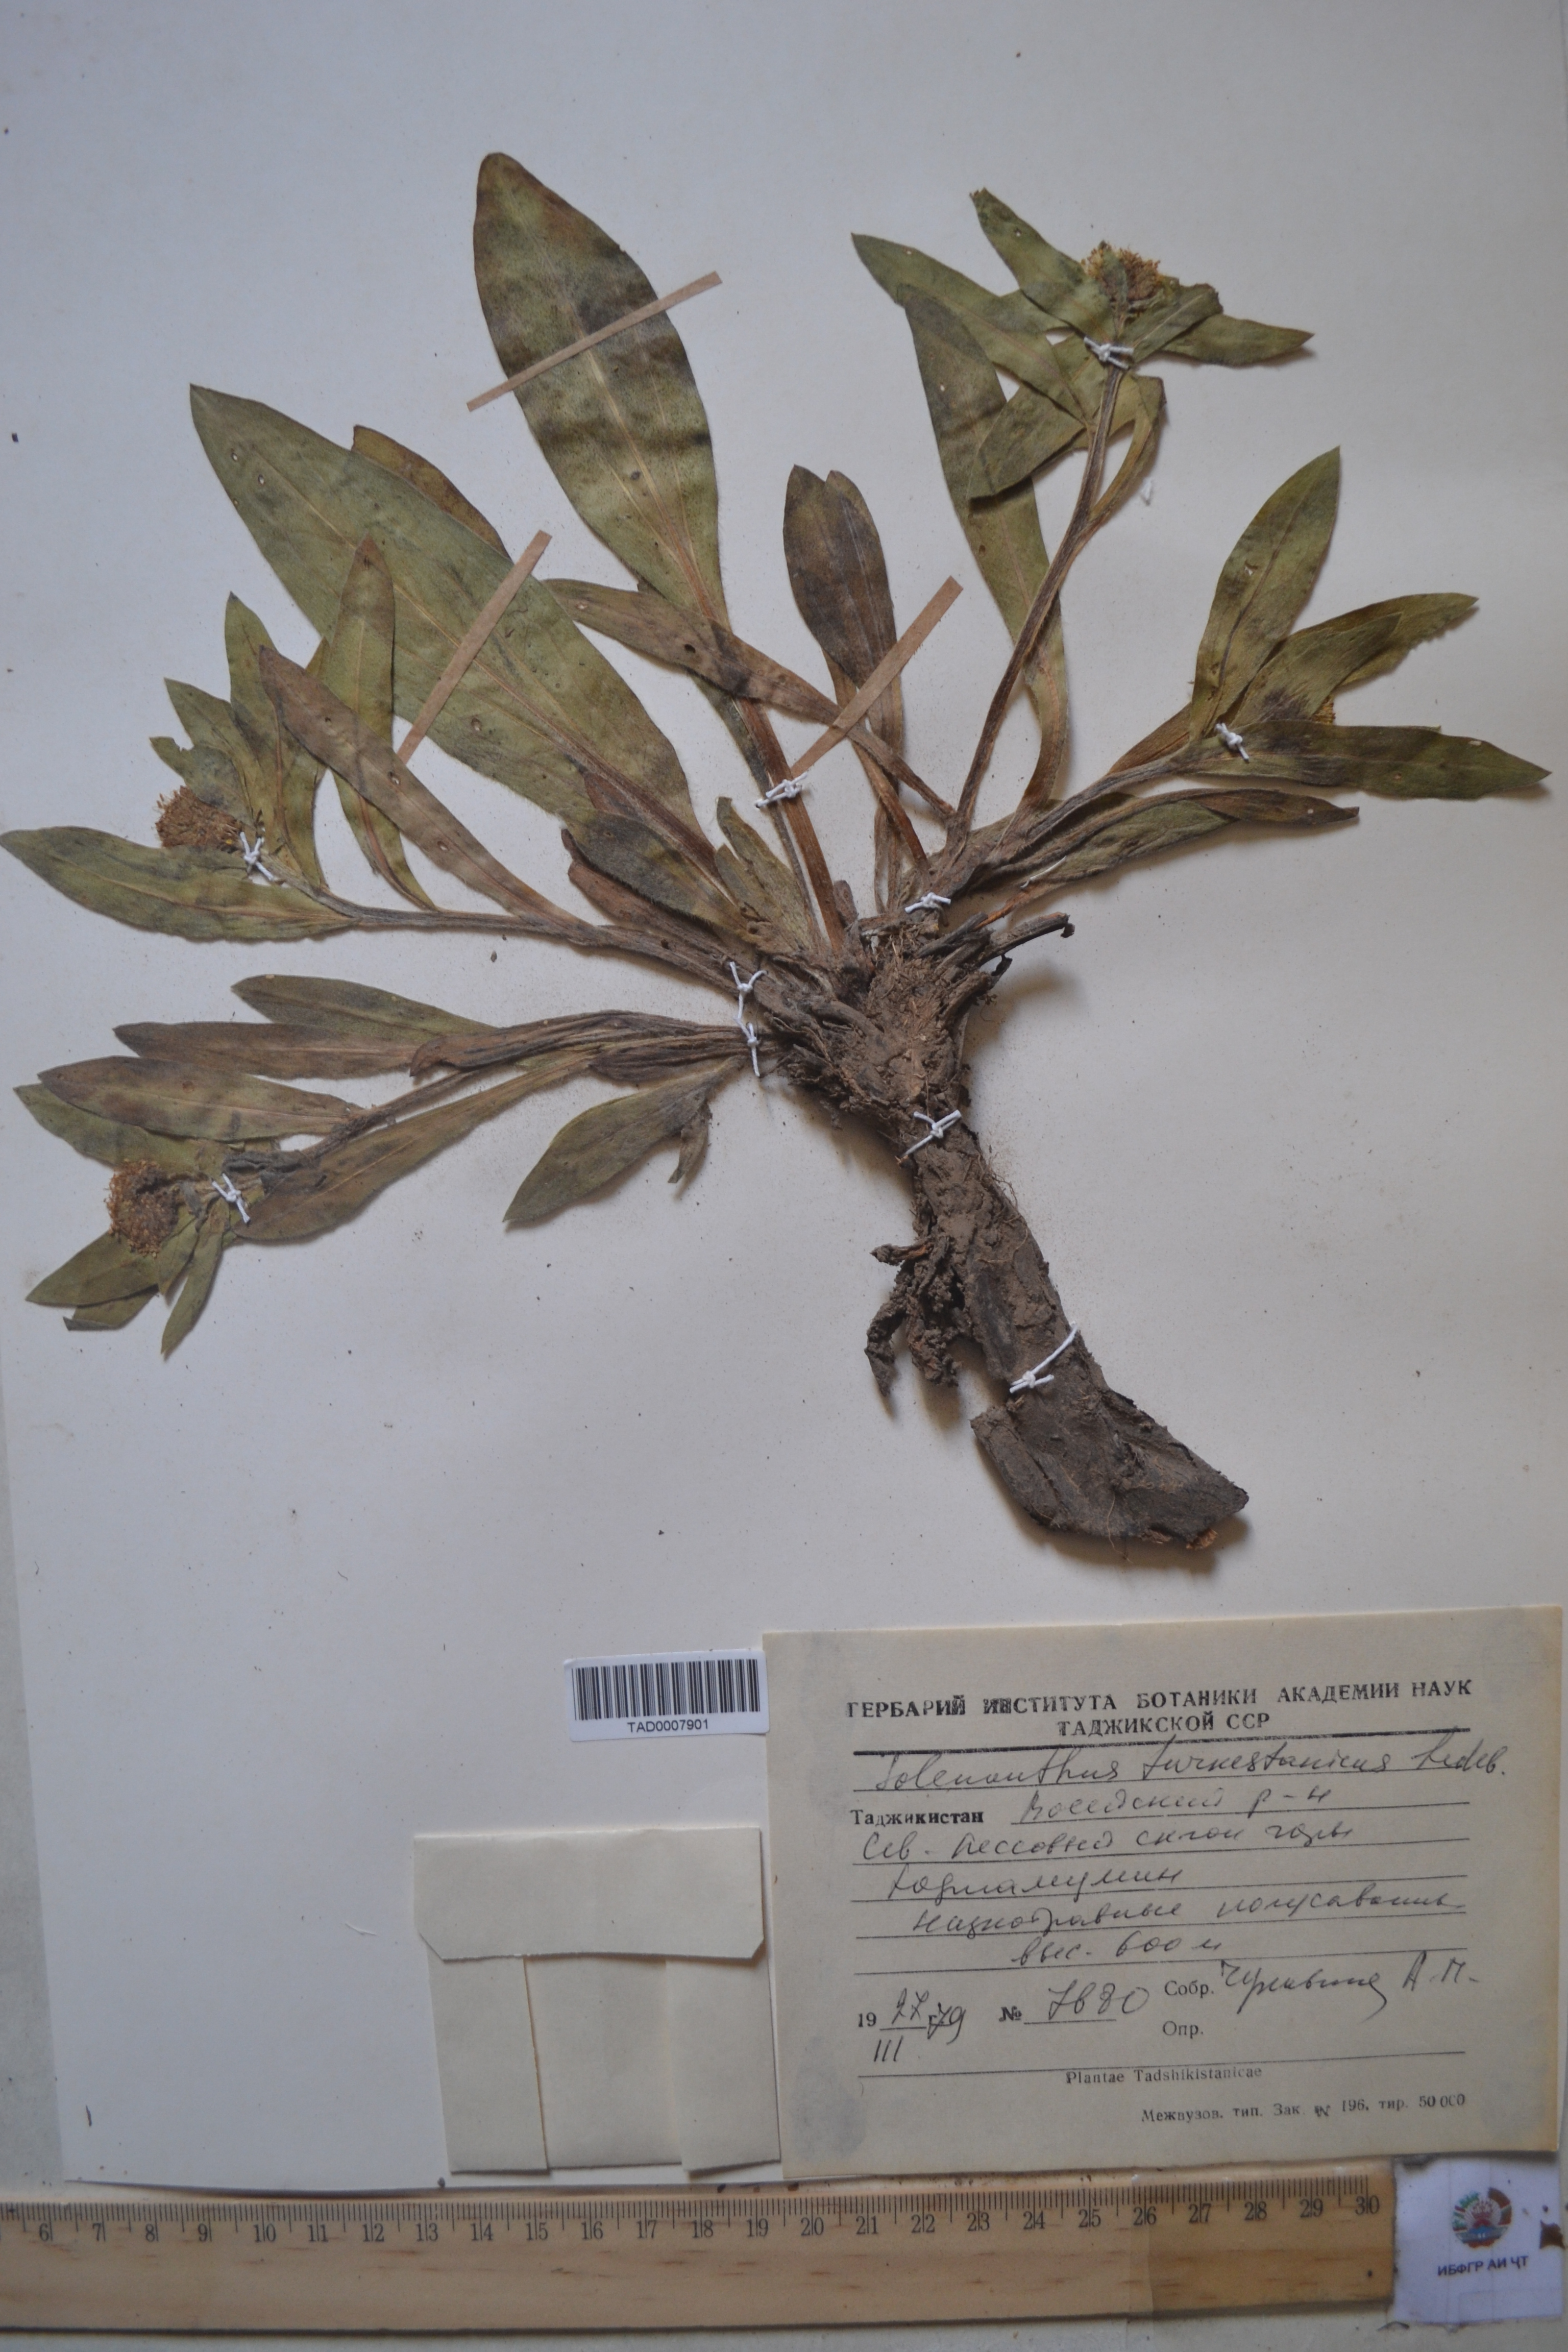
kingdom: Plantae
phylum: Tracheophyta
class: Magnoliopsida
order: Boraginales
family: Boraginaceae
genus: Solenanthus
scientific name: Solenanthus turkestanicus
